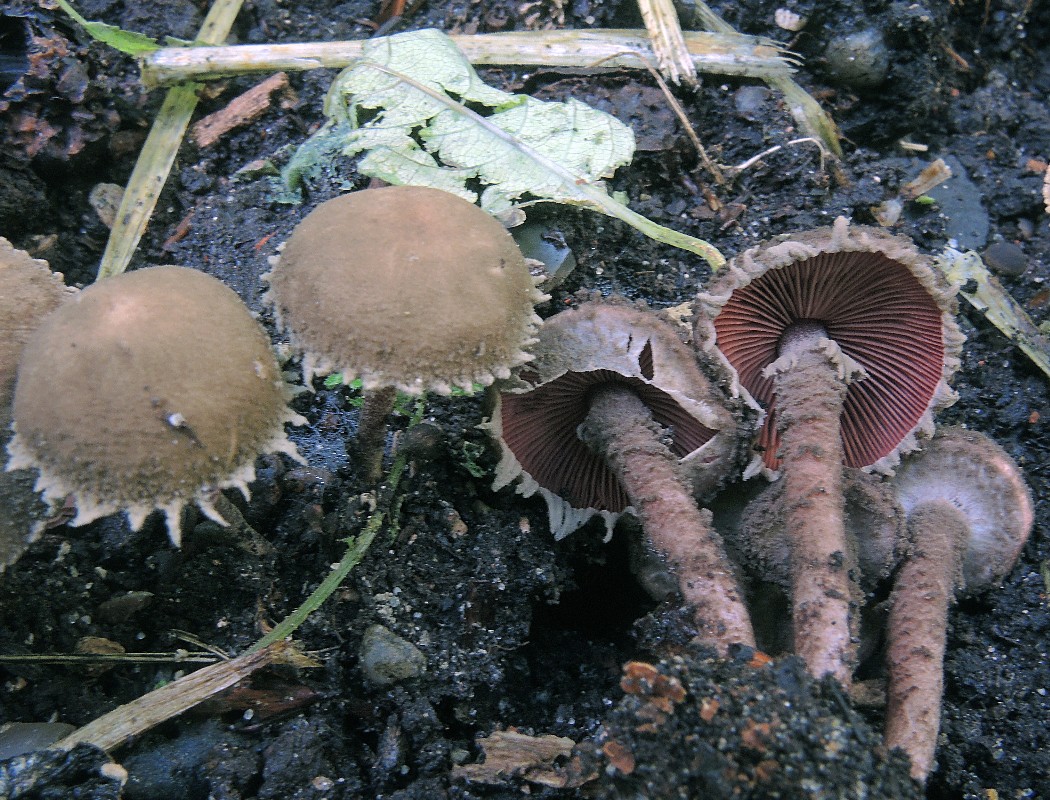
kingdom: Fungi
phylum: Basidiomycota
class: Agaricomycetes
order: Agaricales
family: Agaricaceae
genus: Melanophyllum
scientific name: Melanophyllum haematospermum
